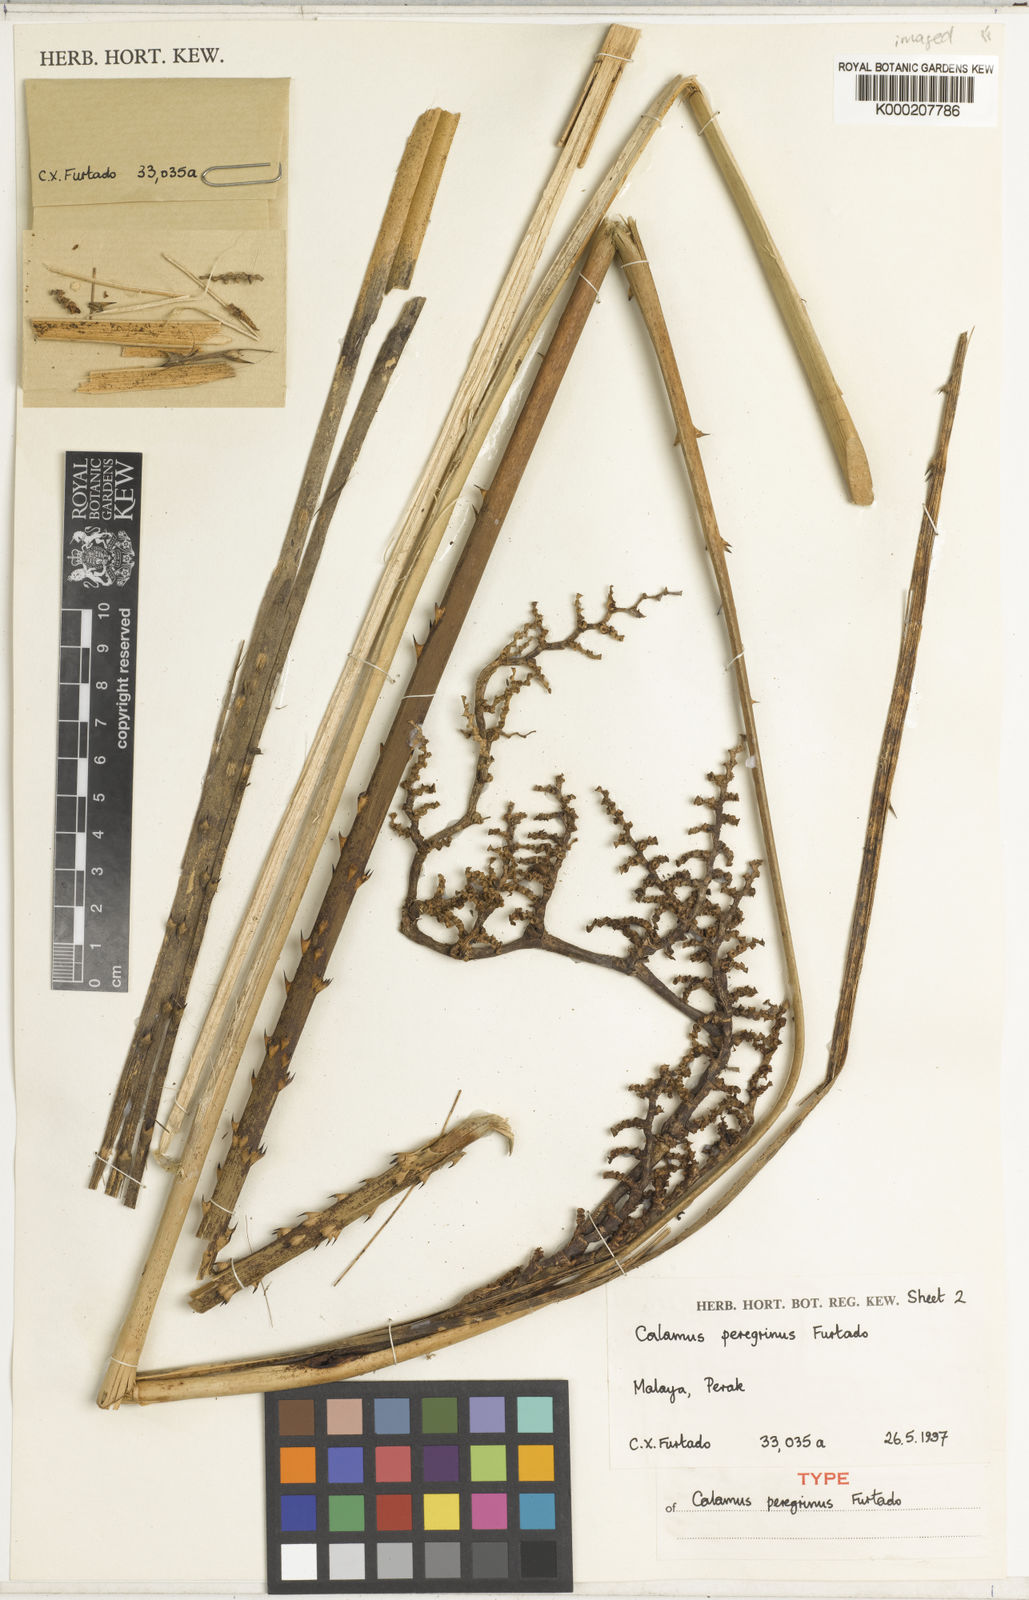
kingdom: Plantae
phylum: Tracheophyta
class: Liliopsida
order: Arecales
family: Arecaceae
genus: Calamus
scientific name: Calamus peregrinus
